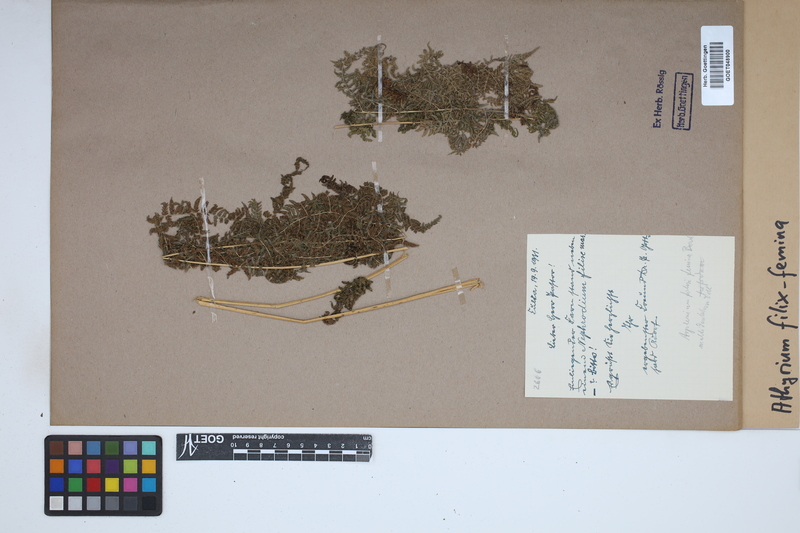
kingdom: Plantae
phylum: Tracheophyta
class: Polypodiopsida
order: Polypodiales
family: Athyriaceae
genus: Athyrium
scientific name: Athyrium filix-femina
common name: Lady fern
